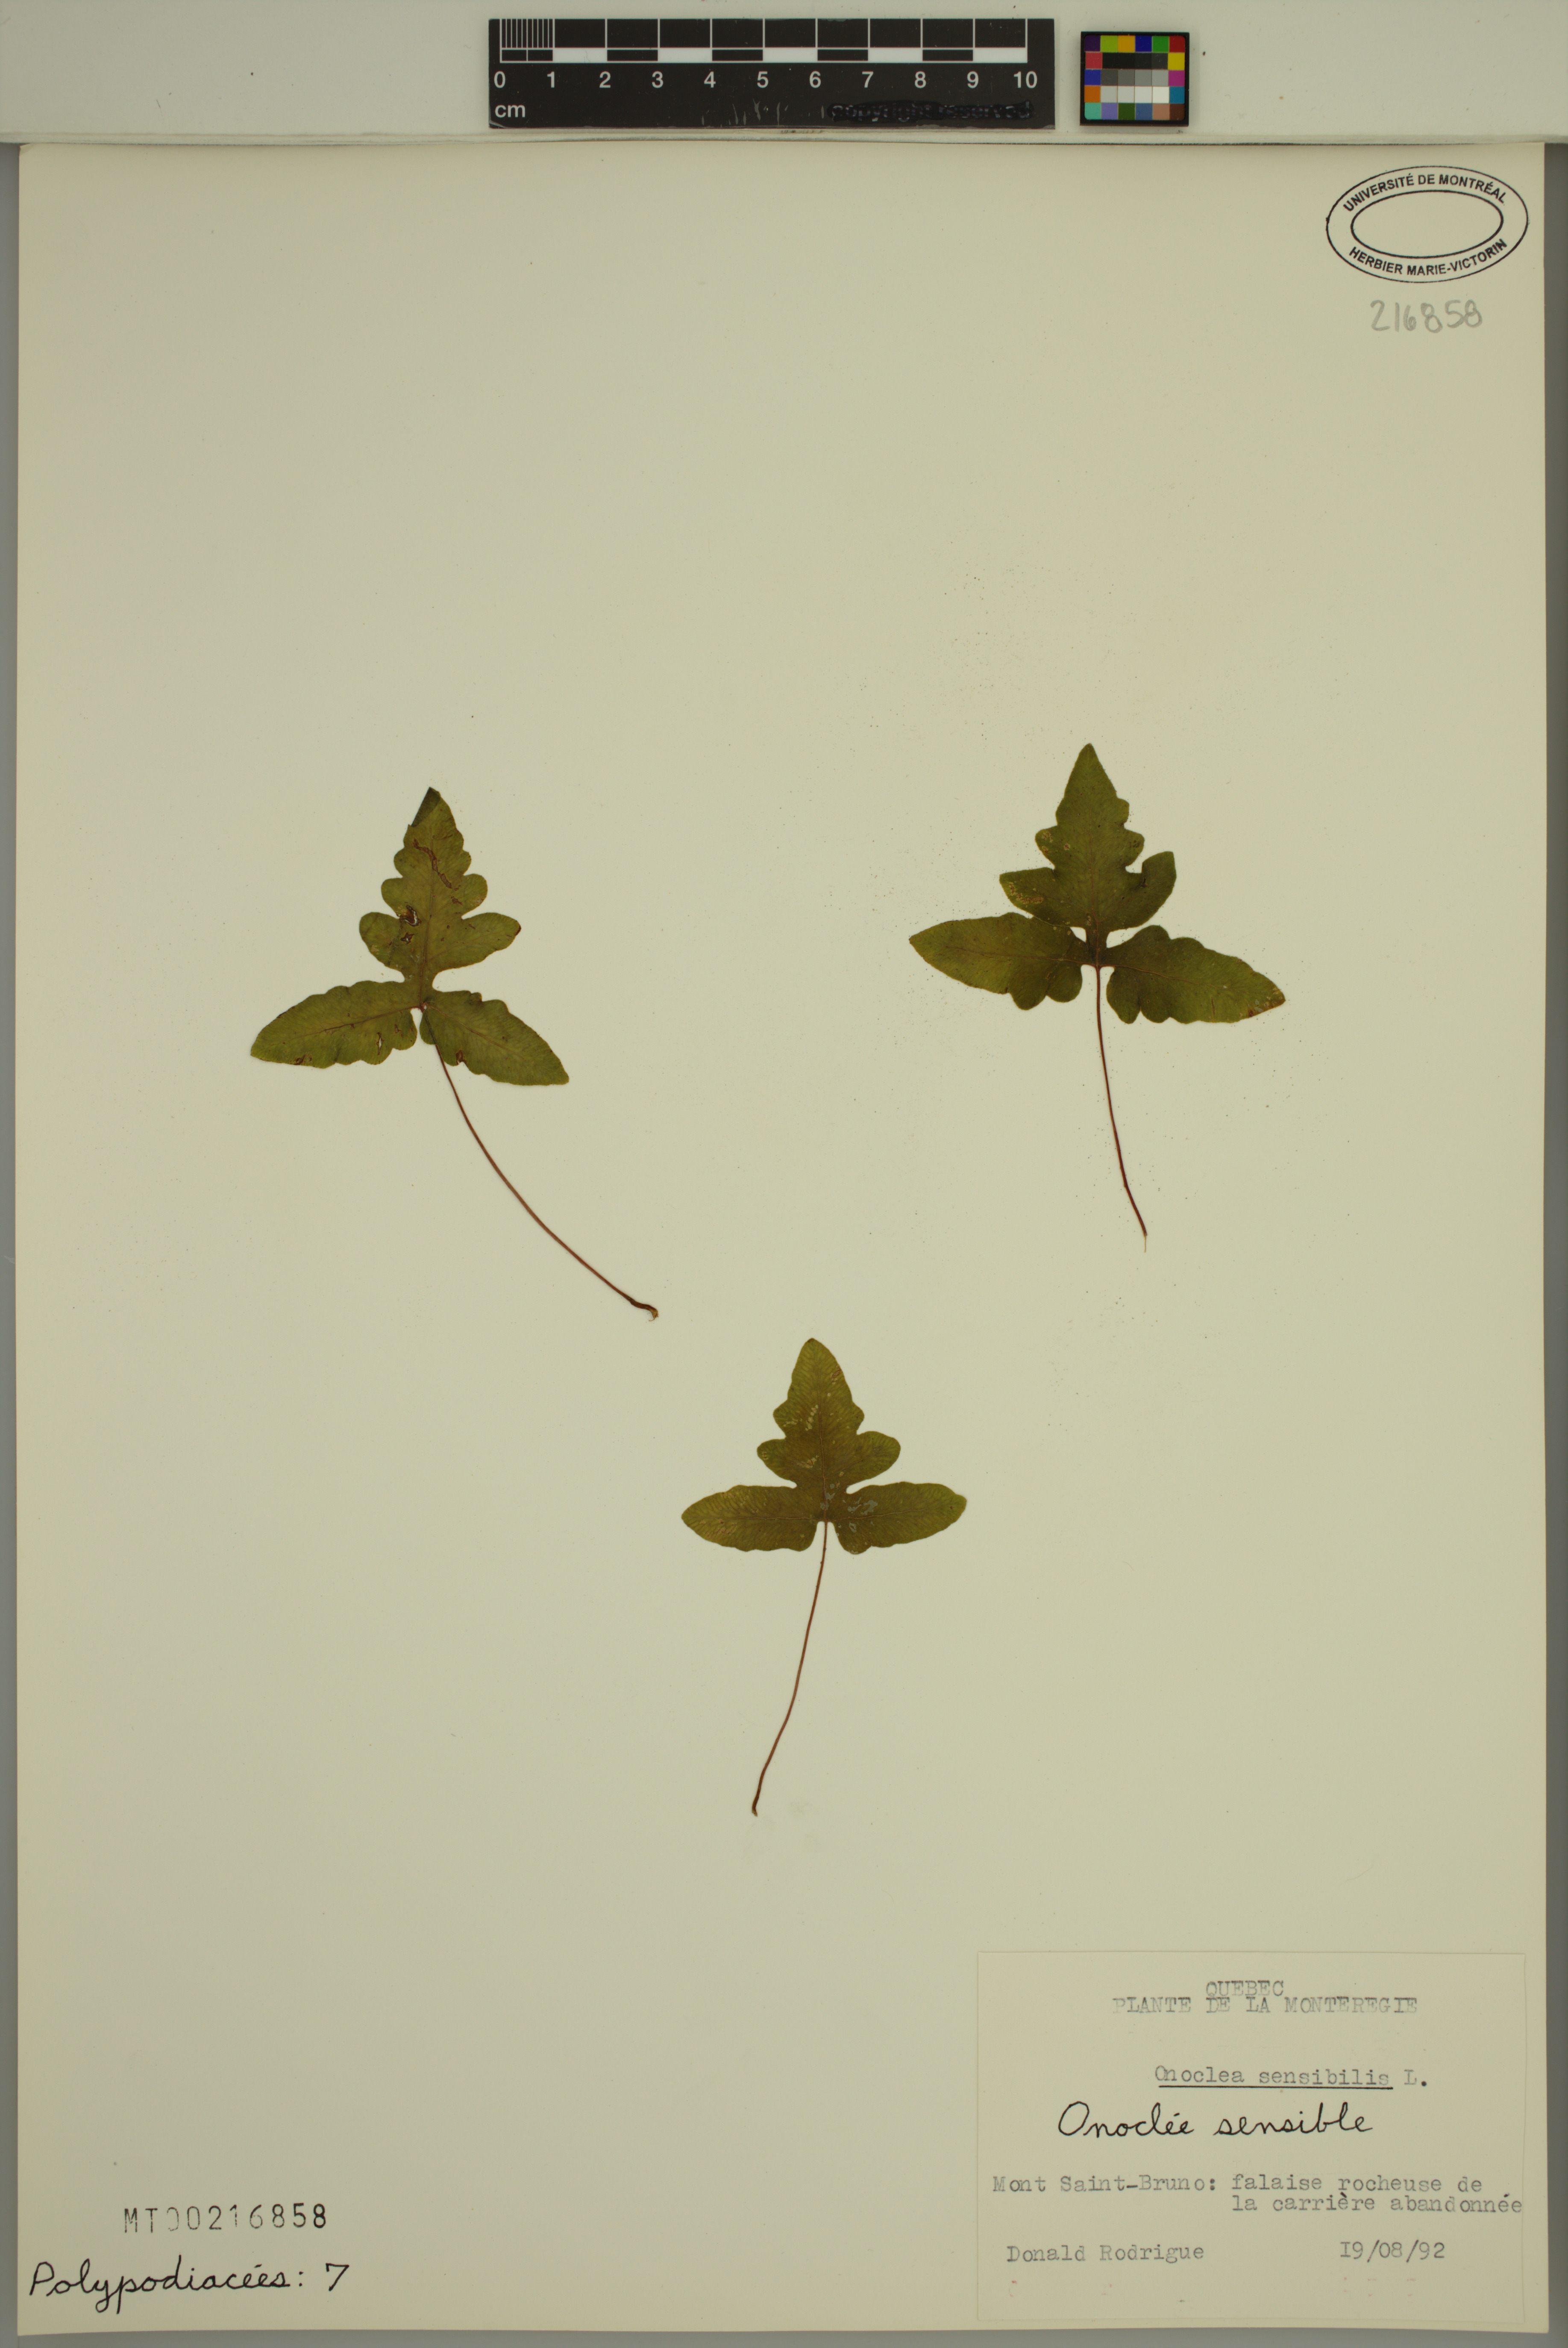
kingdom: Plantae
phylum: Tracheophyta
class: Polypodiopsida
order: Polypodiales
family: Onocleaceae
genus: Onoclea
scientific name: Onoclea sensibilis
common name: Sensitive fern
